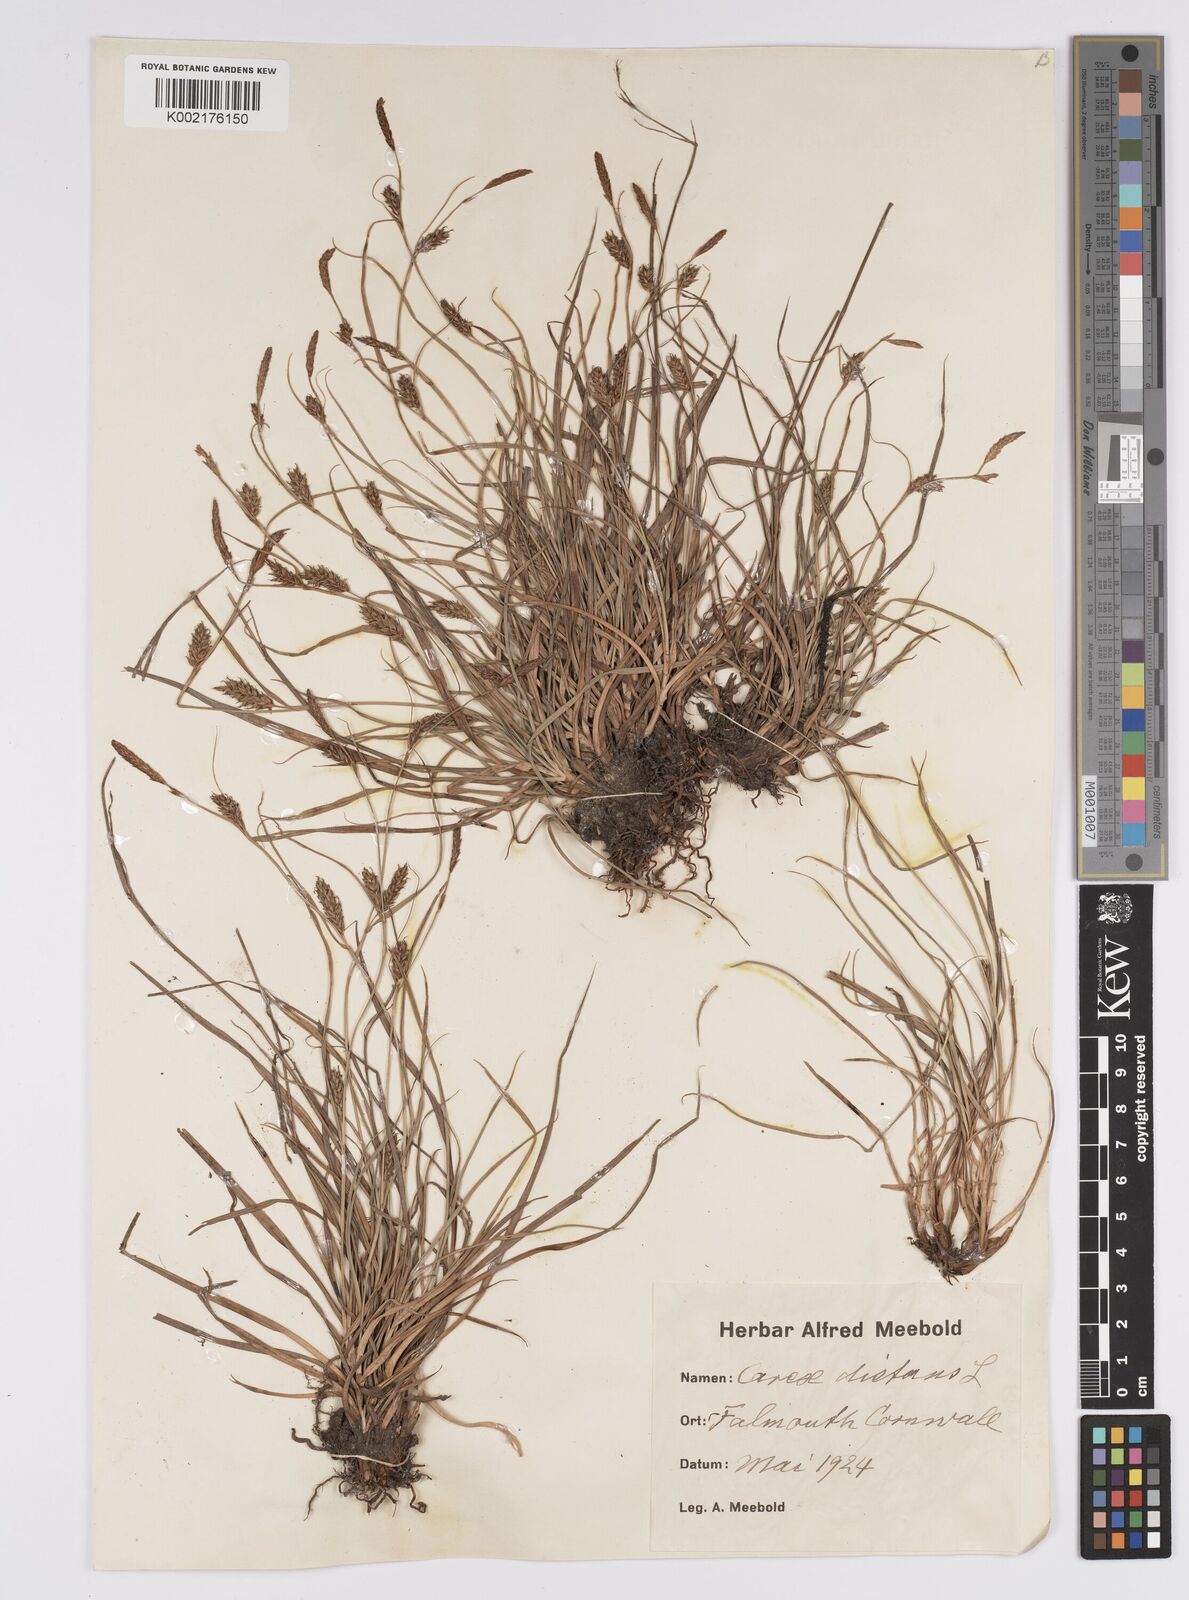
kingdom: Plantae
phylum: Tracheophyta
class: Liliopsida
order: Poales
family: Cyperaceae
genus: Carex
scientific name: Carex distans
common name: Distant sedge
